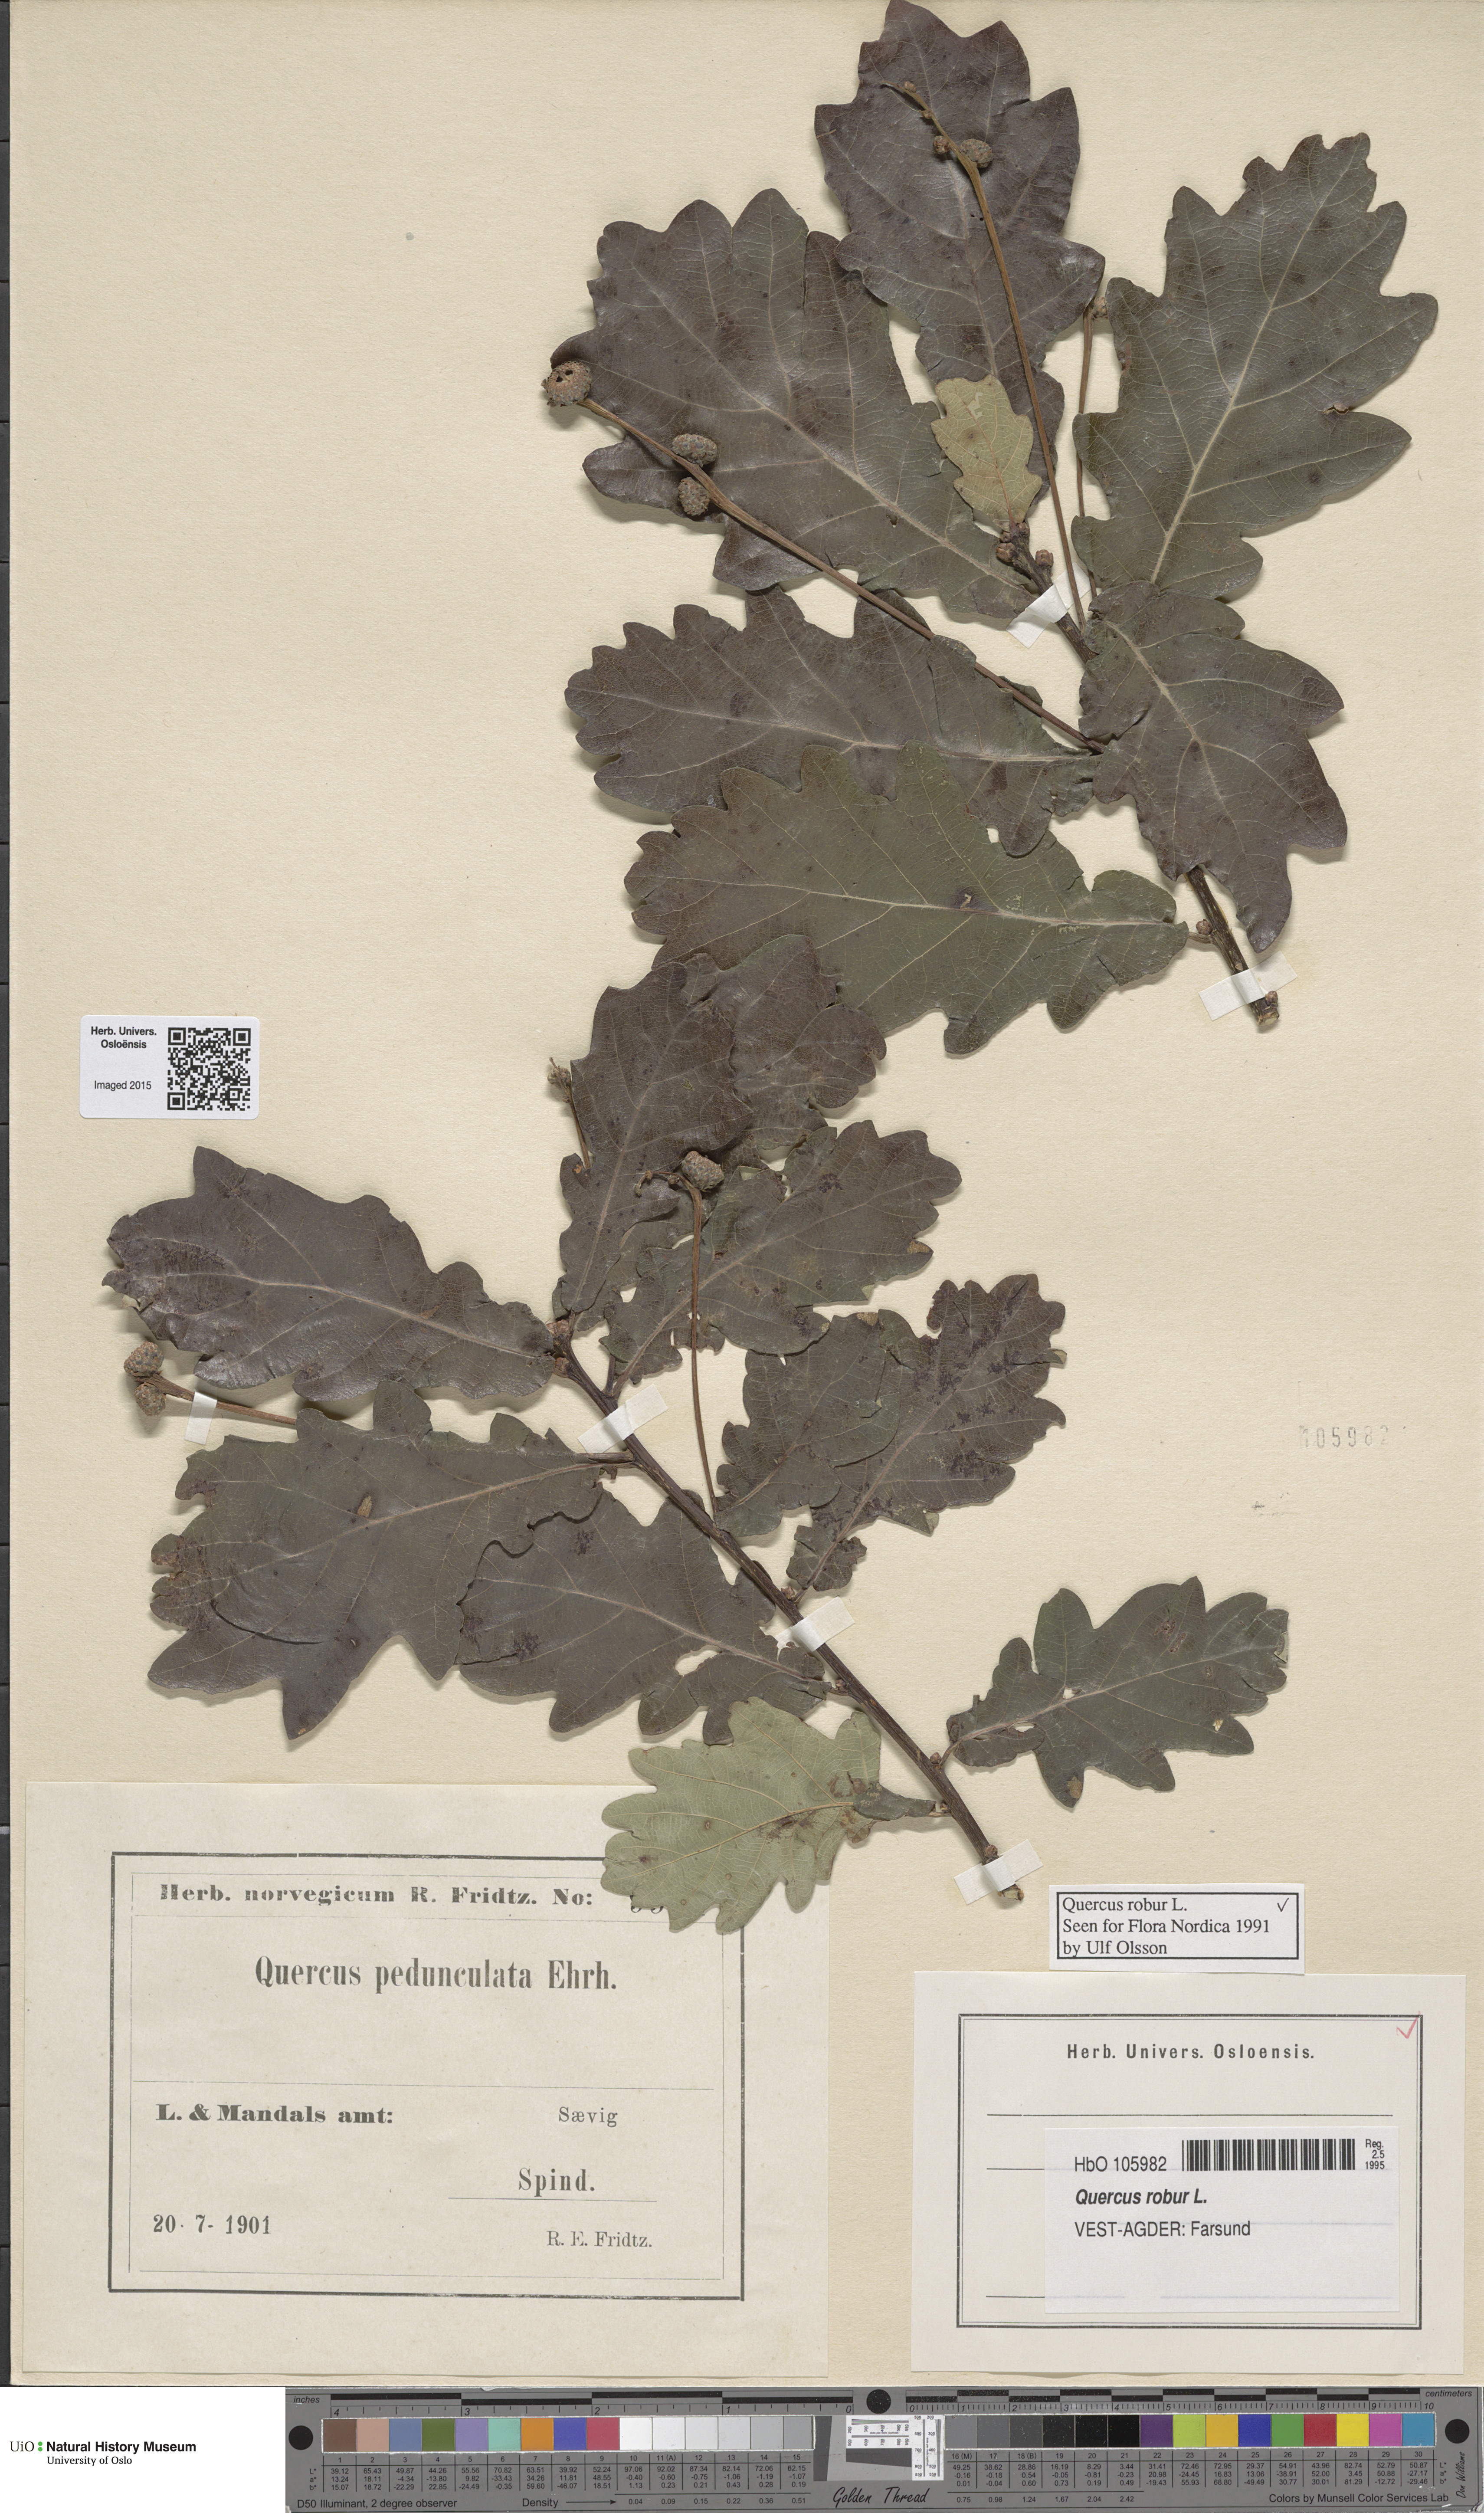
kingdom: Plantae
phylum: Tracheophyta
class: Magnoliopsida
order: Fagales
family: Fagaceae
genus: Quercus
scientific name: Quercus robur
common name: Pedunculate oak
